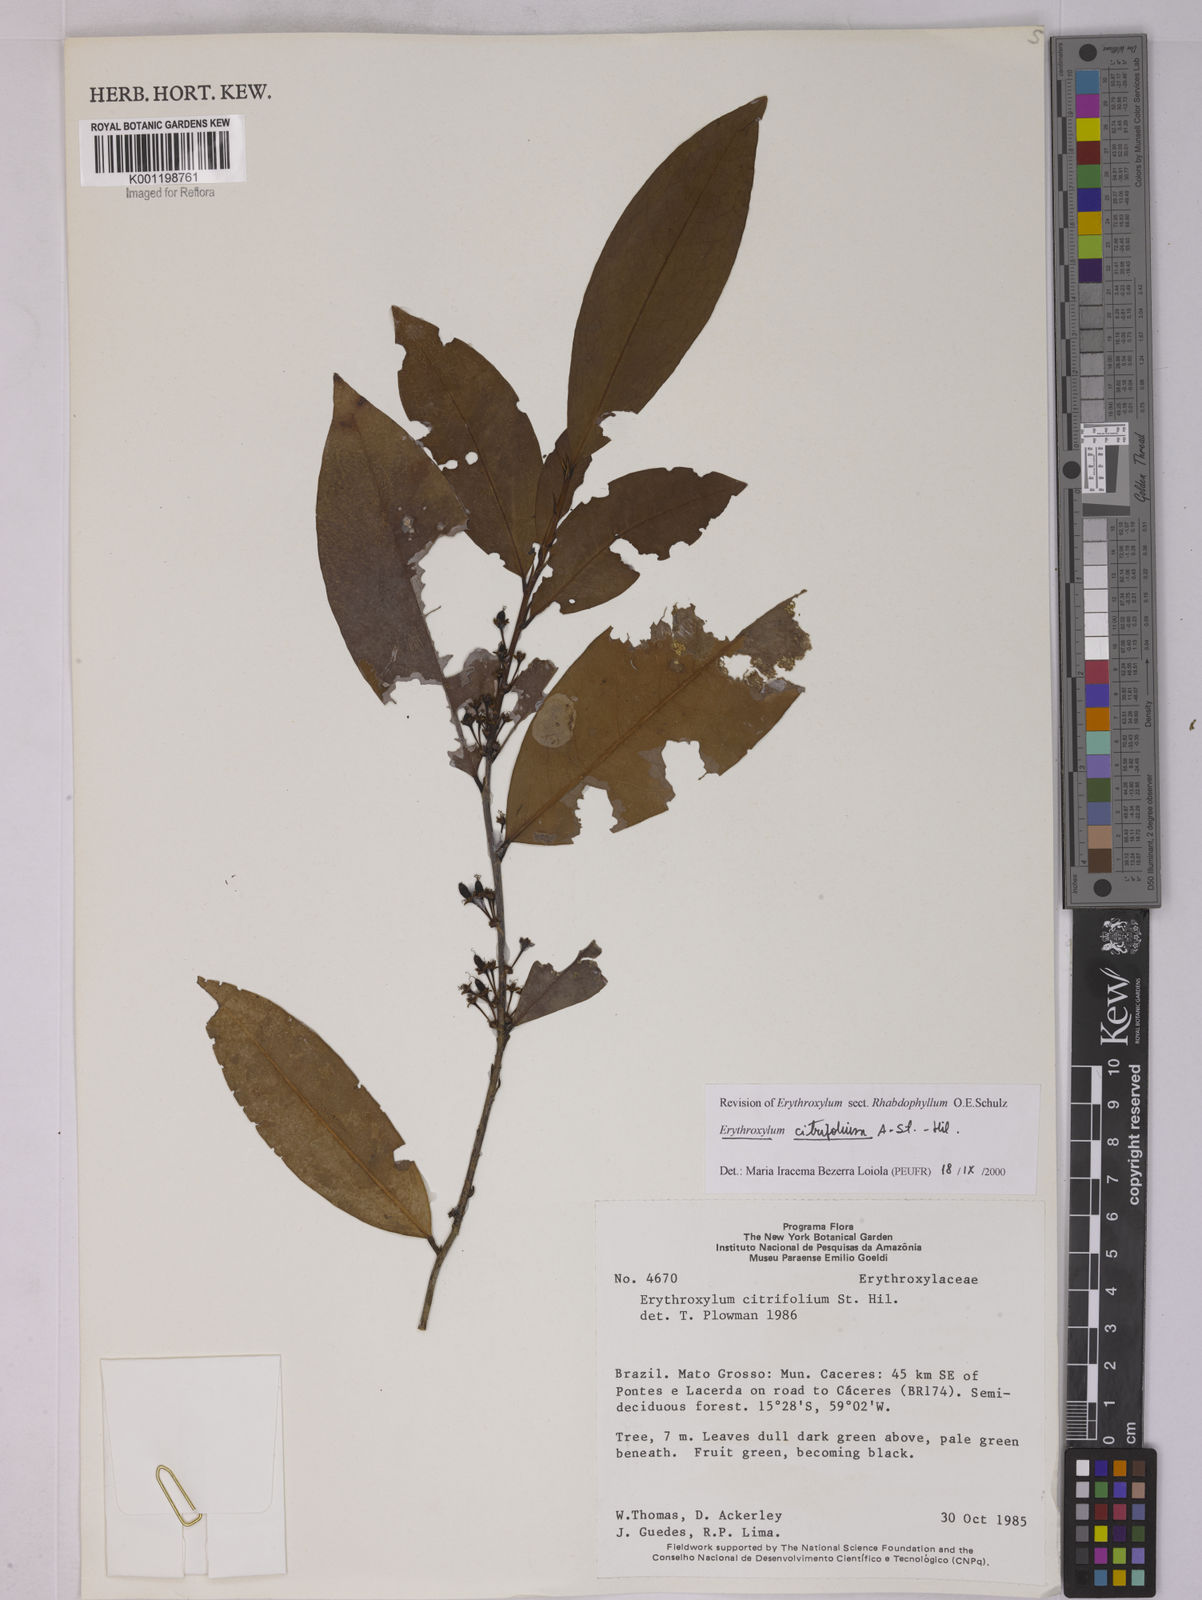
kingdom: Plantae
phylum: Tracheophyta
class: Magnoliopsida
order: Malpighiales
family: Erythroxylaceae
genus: Erythroxylum
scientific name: Erythroxylum citrifolium
